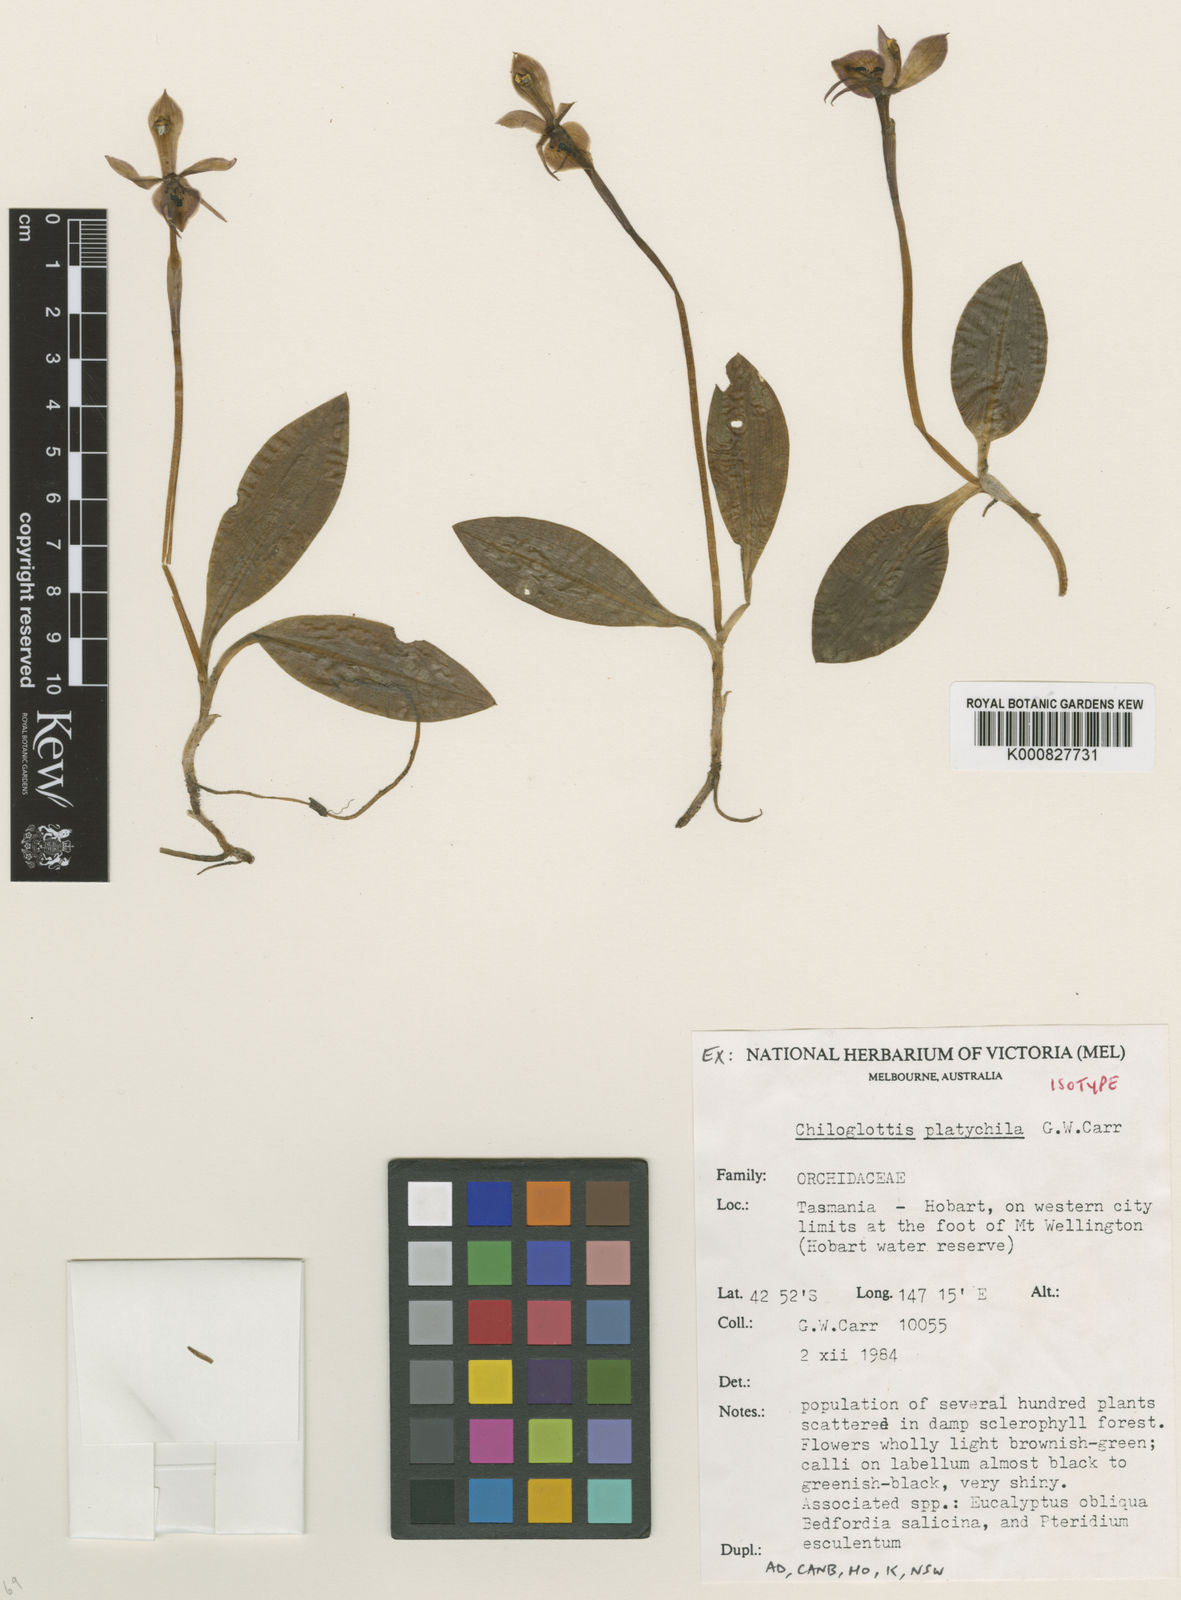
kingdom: Plantae
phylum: Tracheophyta
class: Liliopsida
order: Asparagales
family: Orchidaceae
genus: Chiloglottis
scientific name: Chiloglottis gunnii
